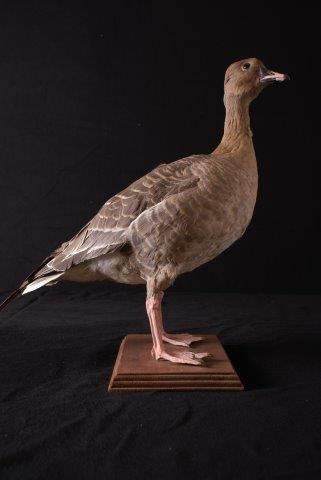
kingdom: Animalia
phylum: Chordata
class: Aves
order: Anseriformes
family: Anatidae
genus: Anser
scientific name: Anser brachyrhynchus
